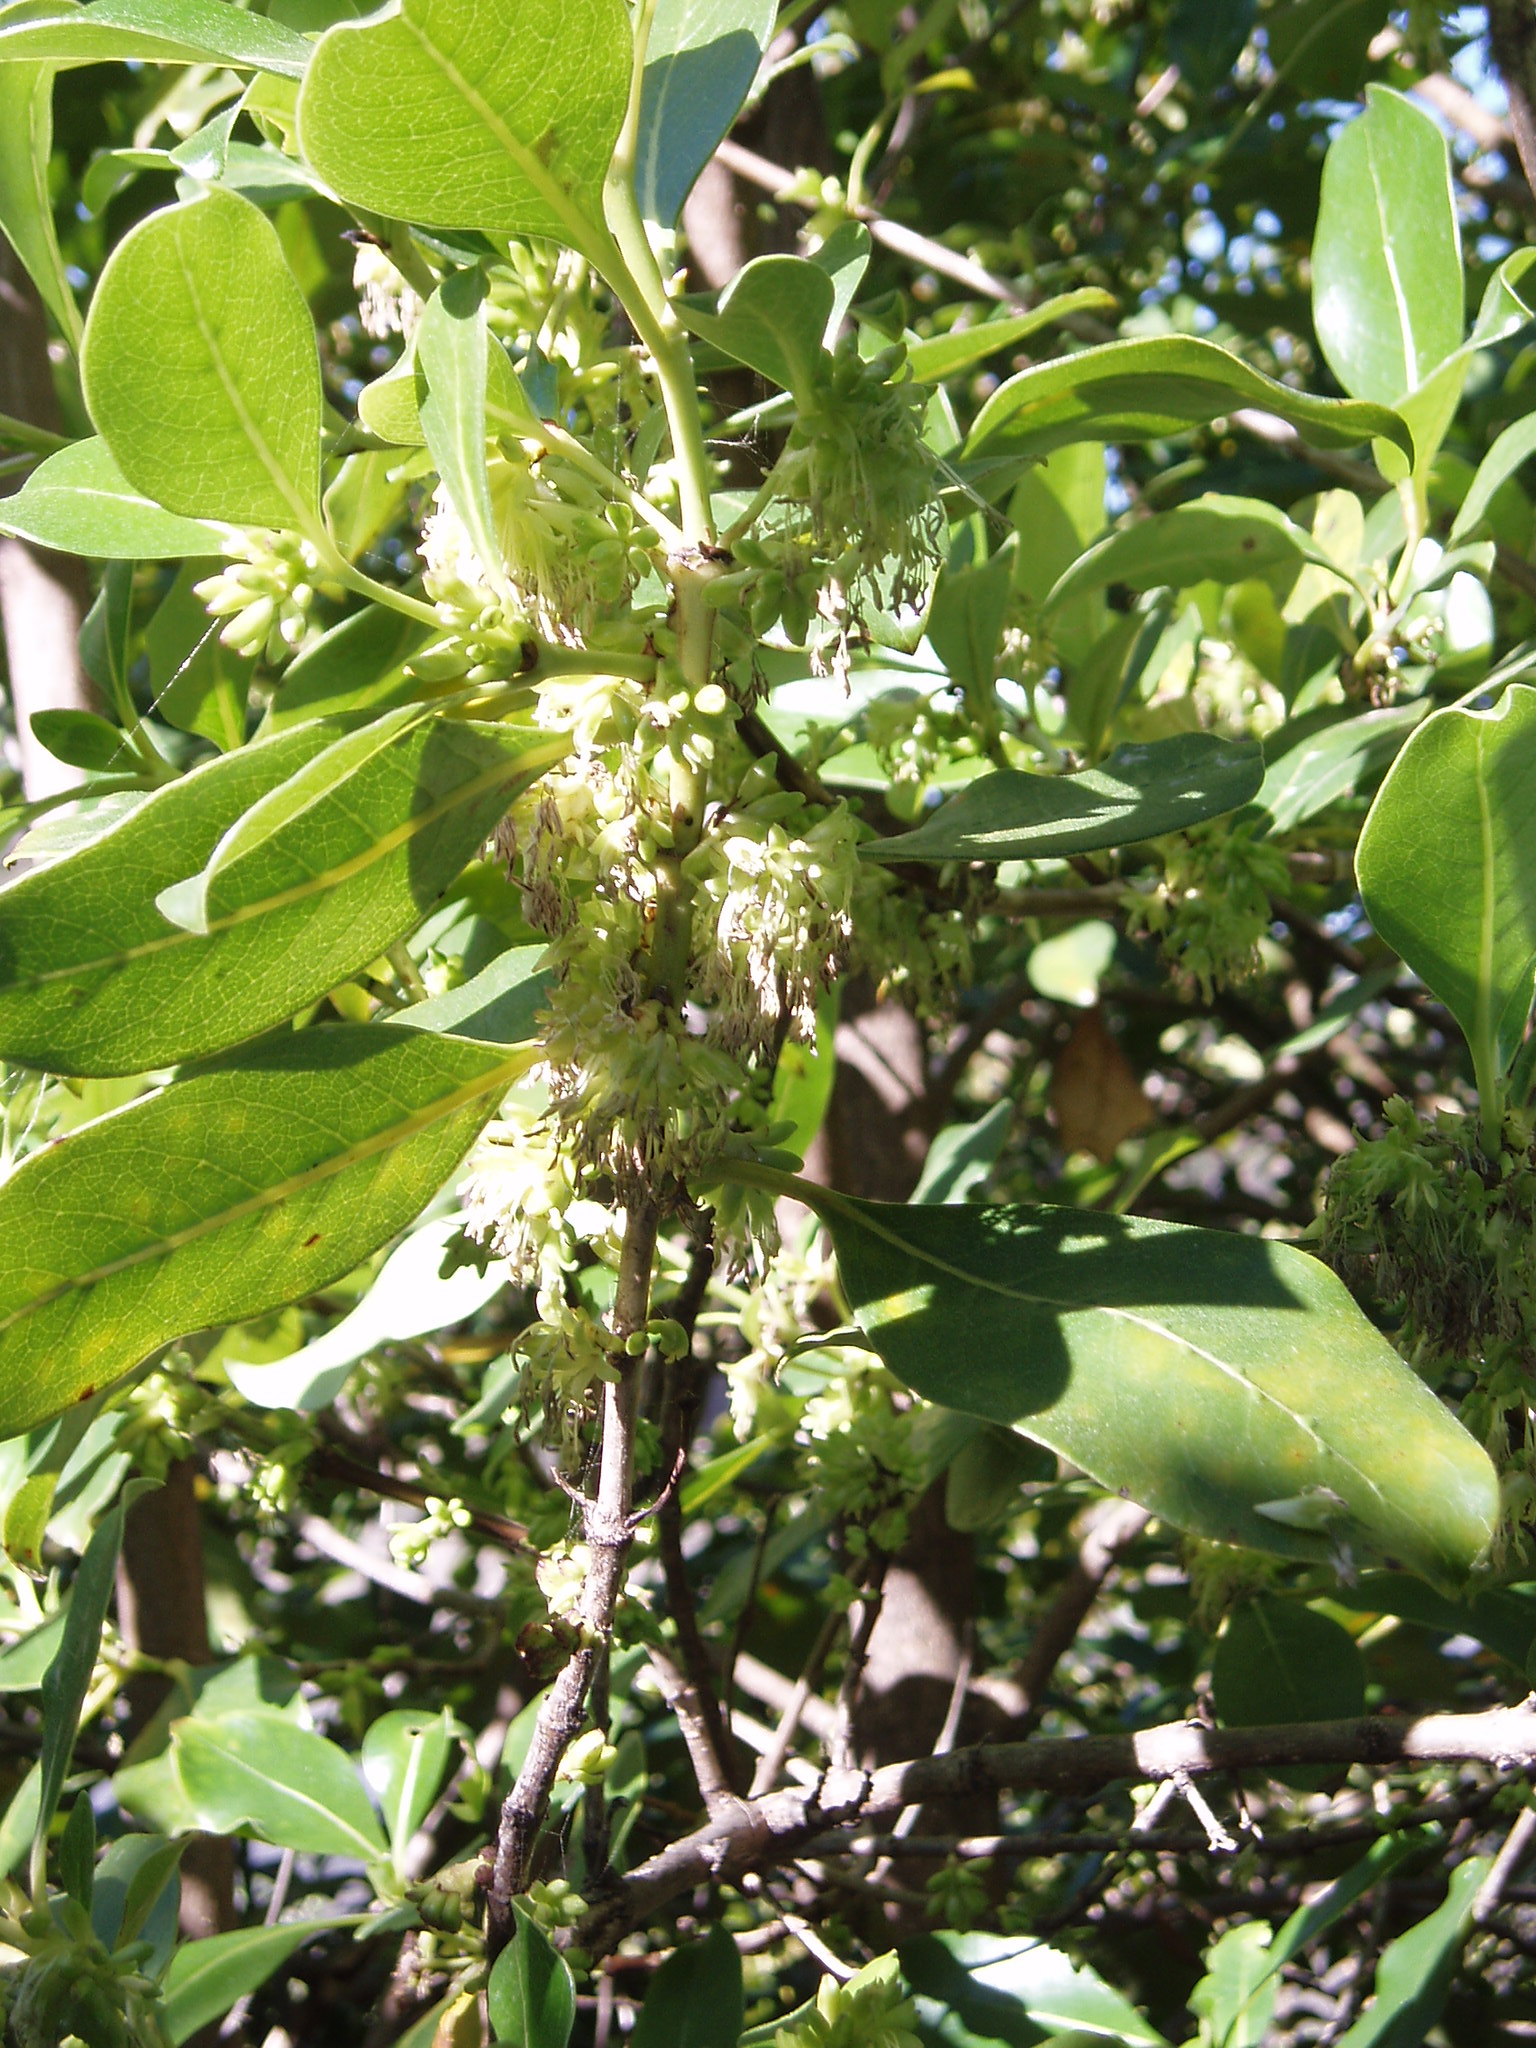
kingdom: Plantae
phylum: Tracheophyta
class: Magnoliopsida
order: Gentianales
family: Rubiaceae
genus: Coprosma
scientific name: Coprosma macrocarpa
